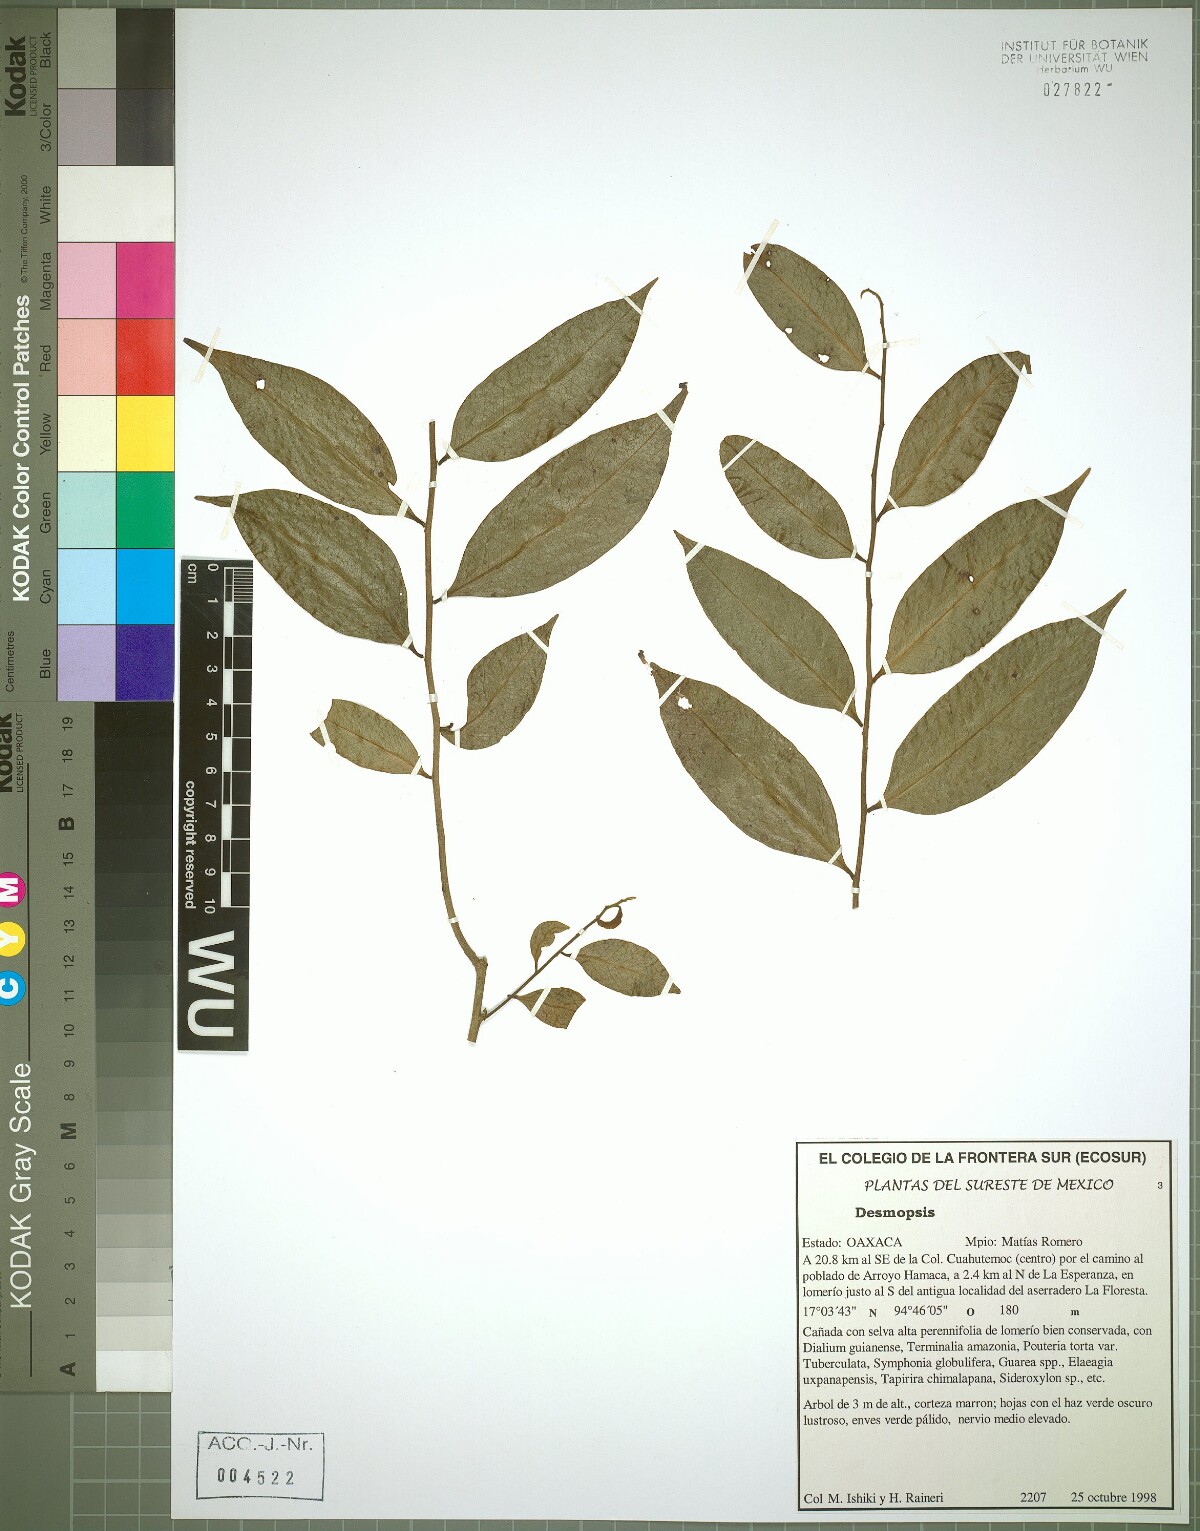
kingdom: Plantae
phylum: Tracheophyta
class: Magnoliopsida
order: Magnoliales
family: Annonaceae
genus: Desmopsis
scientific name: Desmopsis trunciflora
